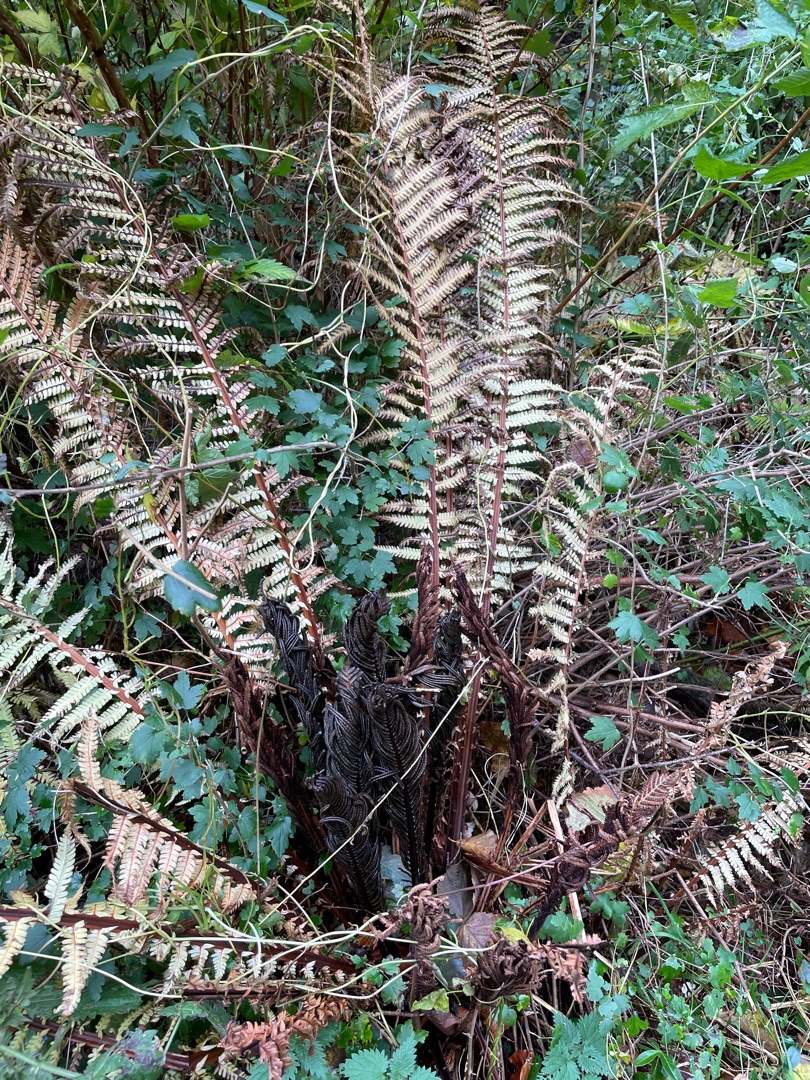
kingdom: Plantae
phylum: Tracheophyta
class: Polypodiopsida
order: Polypodiales
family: Onocleaceae
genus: Matteuccia
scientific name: Matteuccia struthiopteris
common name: Strudsvinge
